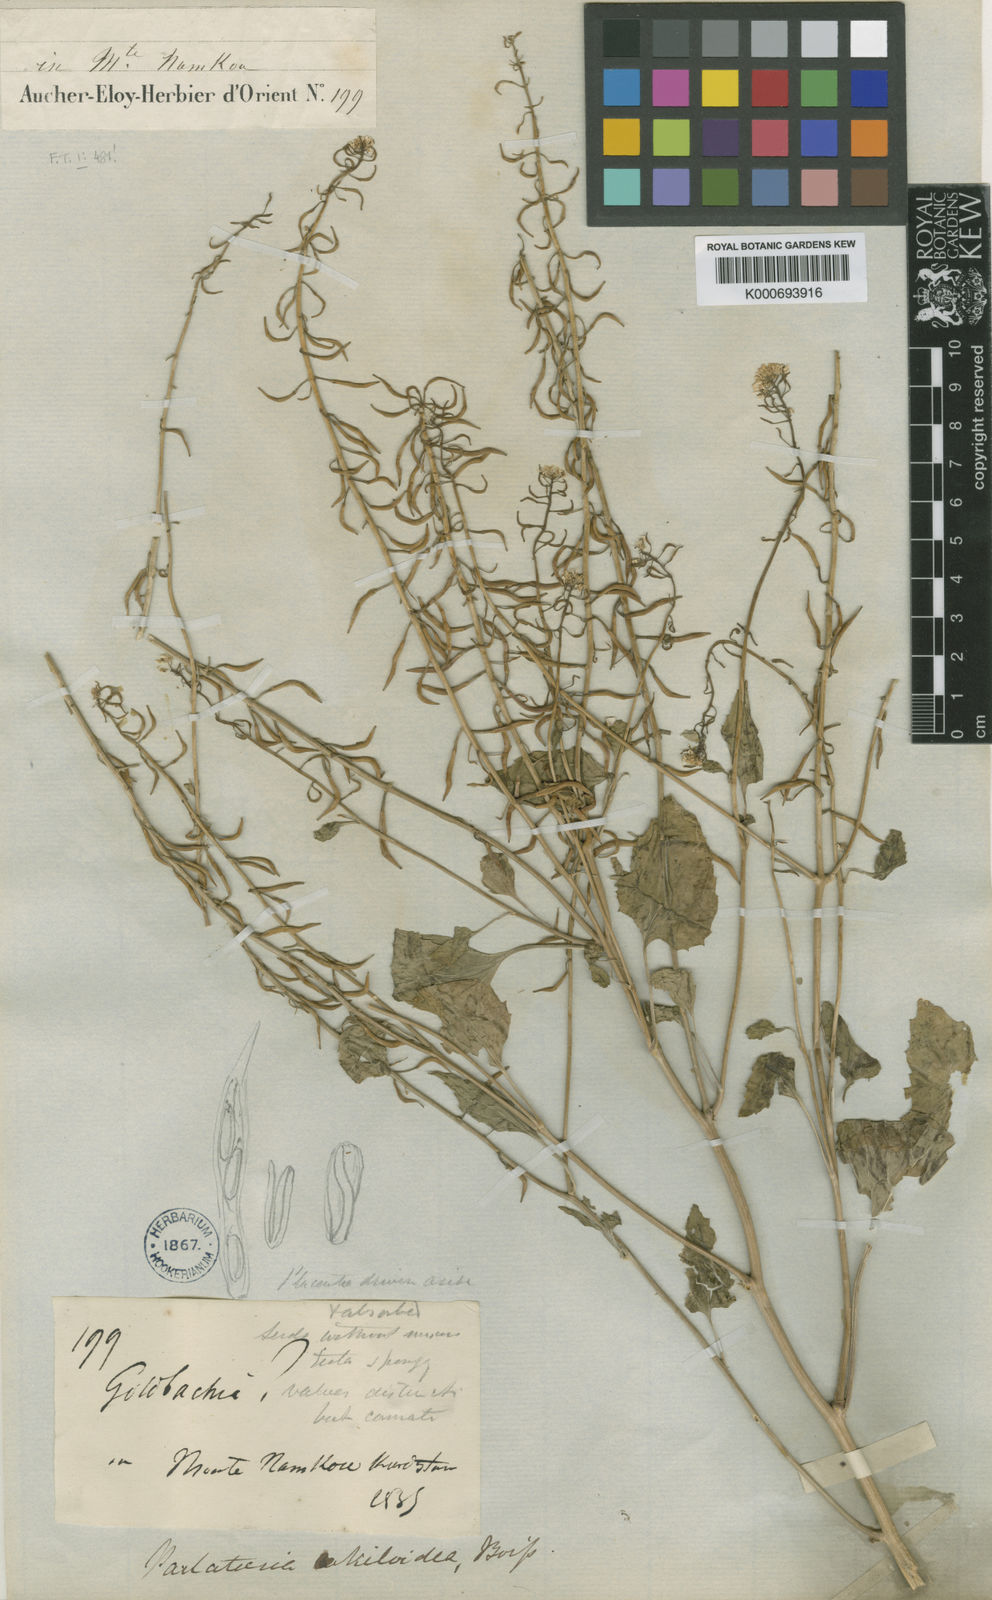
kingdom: Plantae
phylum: Tracheophyta
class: Magnoliopsida
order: Brassicales
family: Brassicaceae
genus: Parlatoria
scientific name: Parlatoria cakiloidea
